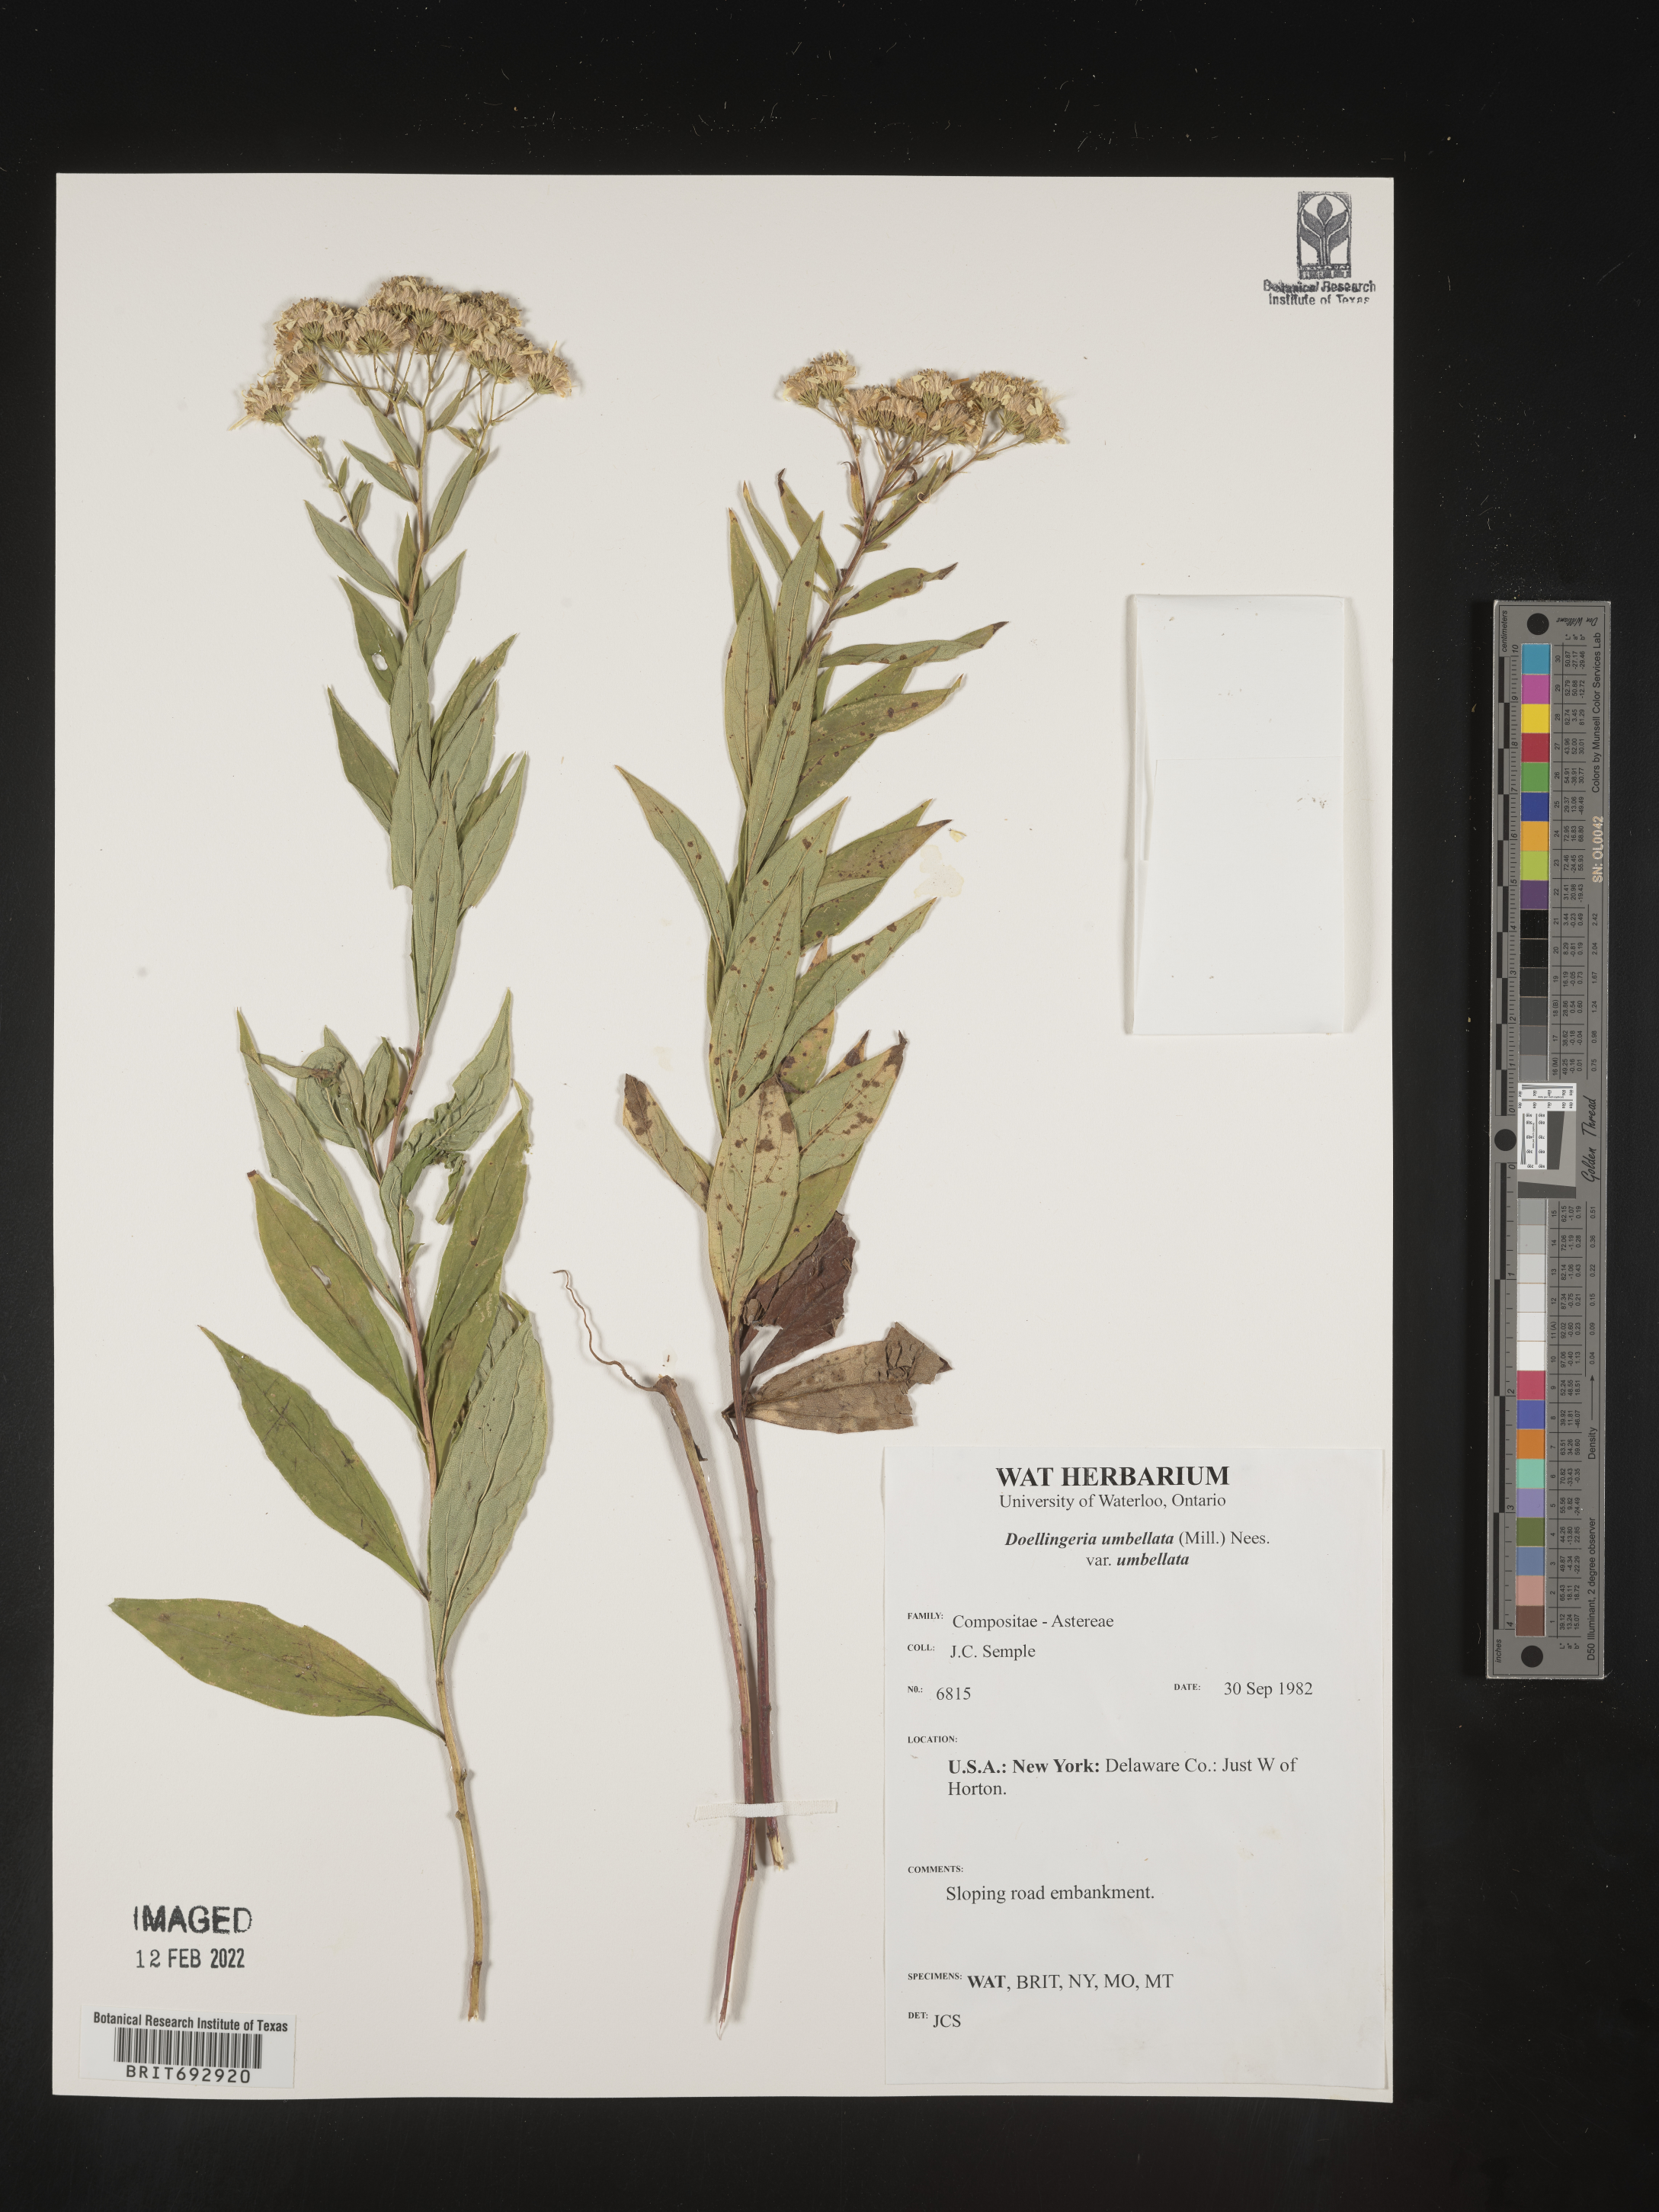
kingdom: Plantae
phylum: Tracheophyta
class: Magnoliopsida
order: Asterales
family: Asteraceae
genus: Doellingeria
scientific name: Doellingeria umbellata
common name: Flat-top white aster
